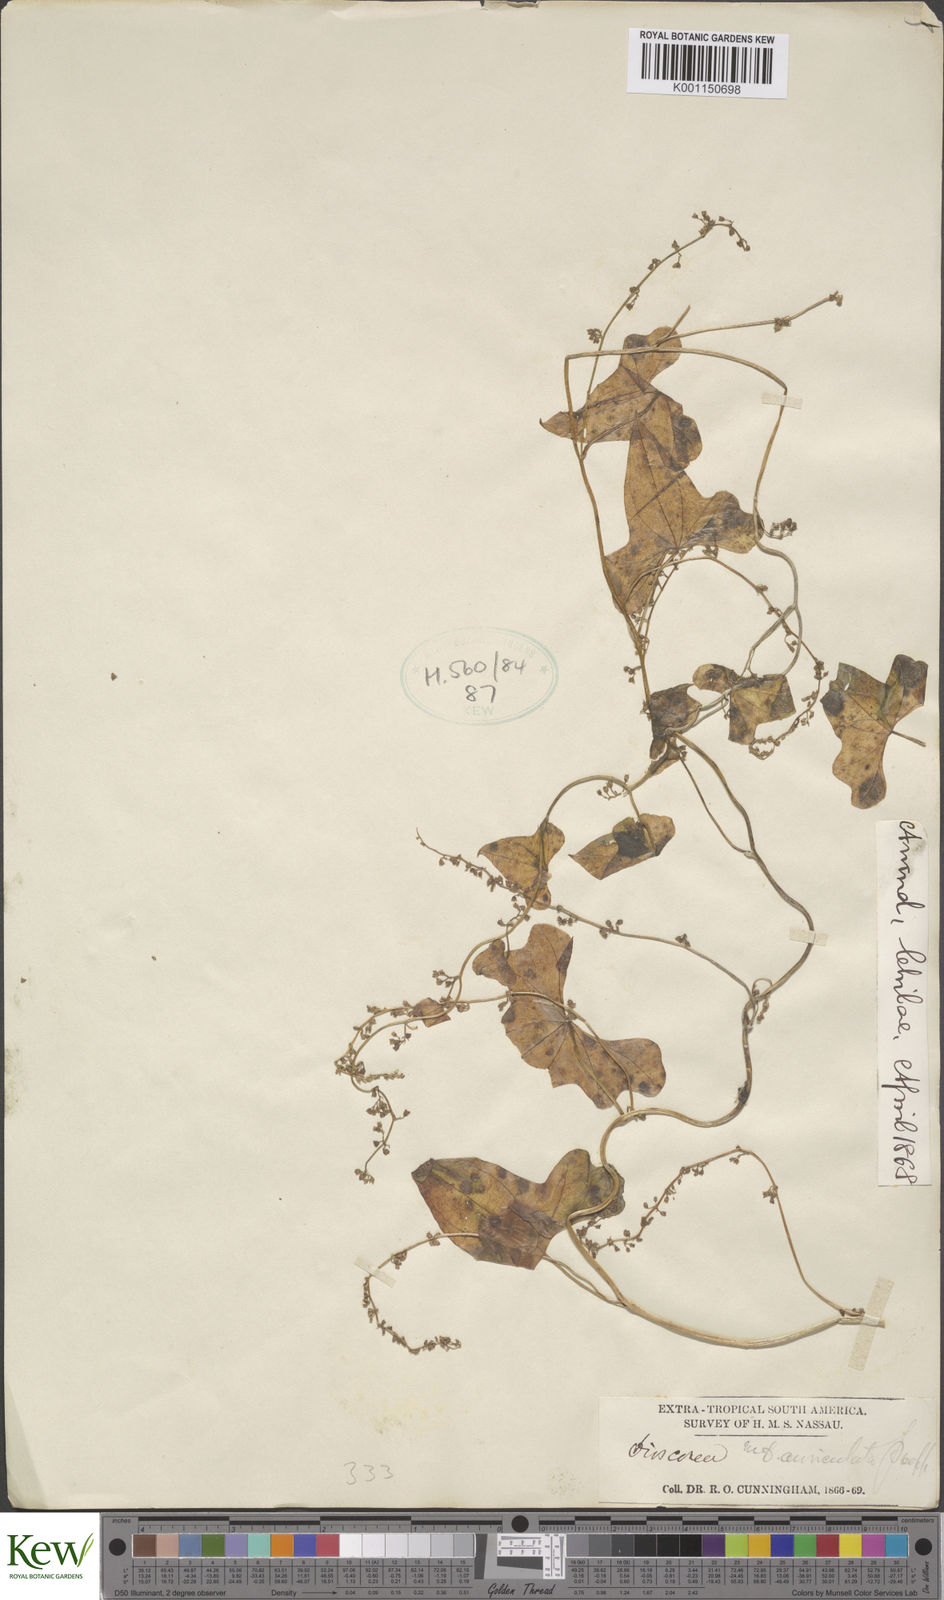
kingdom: Plantae
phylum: Tracheophyta
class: Liliopsida
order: Dioscoreales
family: Dioscoreaceae
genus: Dioscorea
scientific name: Dioscorea auriculata
